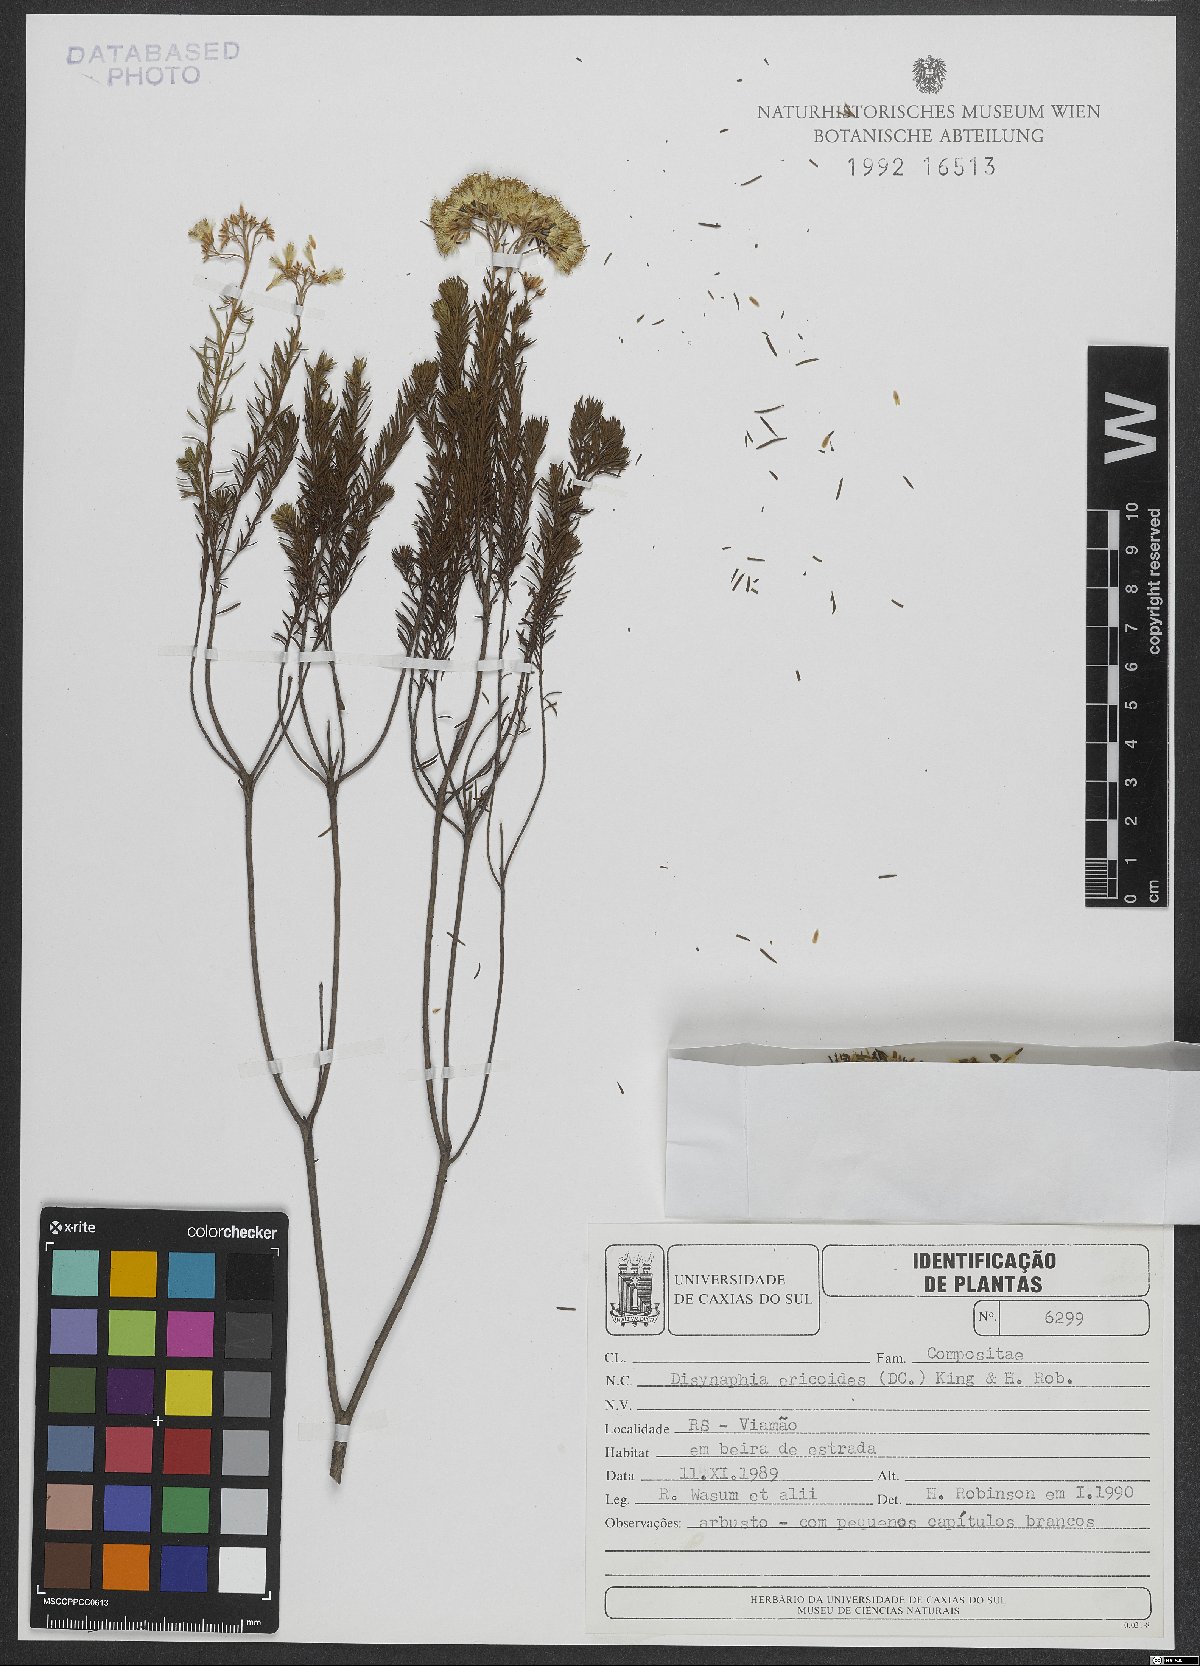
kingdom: Plantae
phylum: Tracheophyta
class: Magnoliopsida
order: Asterales
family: Asteraceae
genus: Disynaphia
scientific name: Disynaphia ericoides
